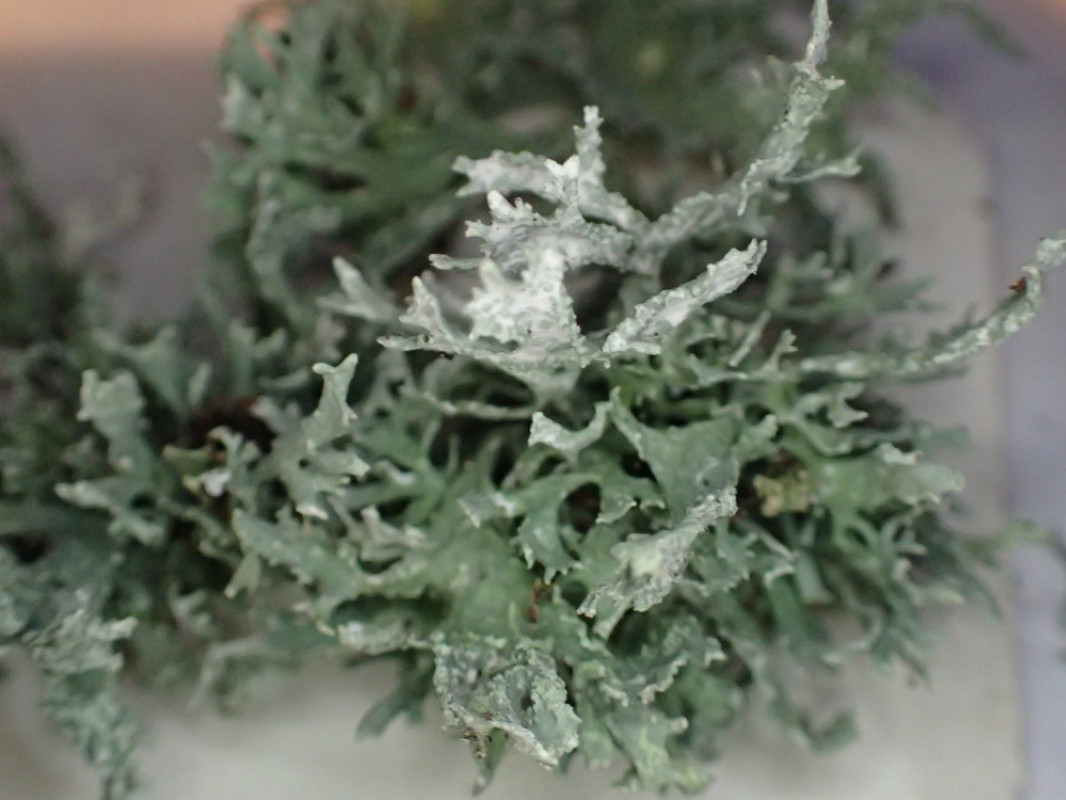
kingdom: Fungi
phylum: Ascomycota
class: Lecanoromycetes
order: Lecanorales
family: Parmeliaceae
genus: Evernia
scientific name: Evernia prunastri
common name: almindelig slåenlav
